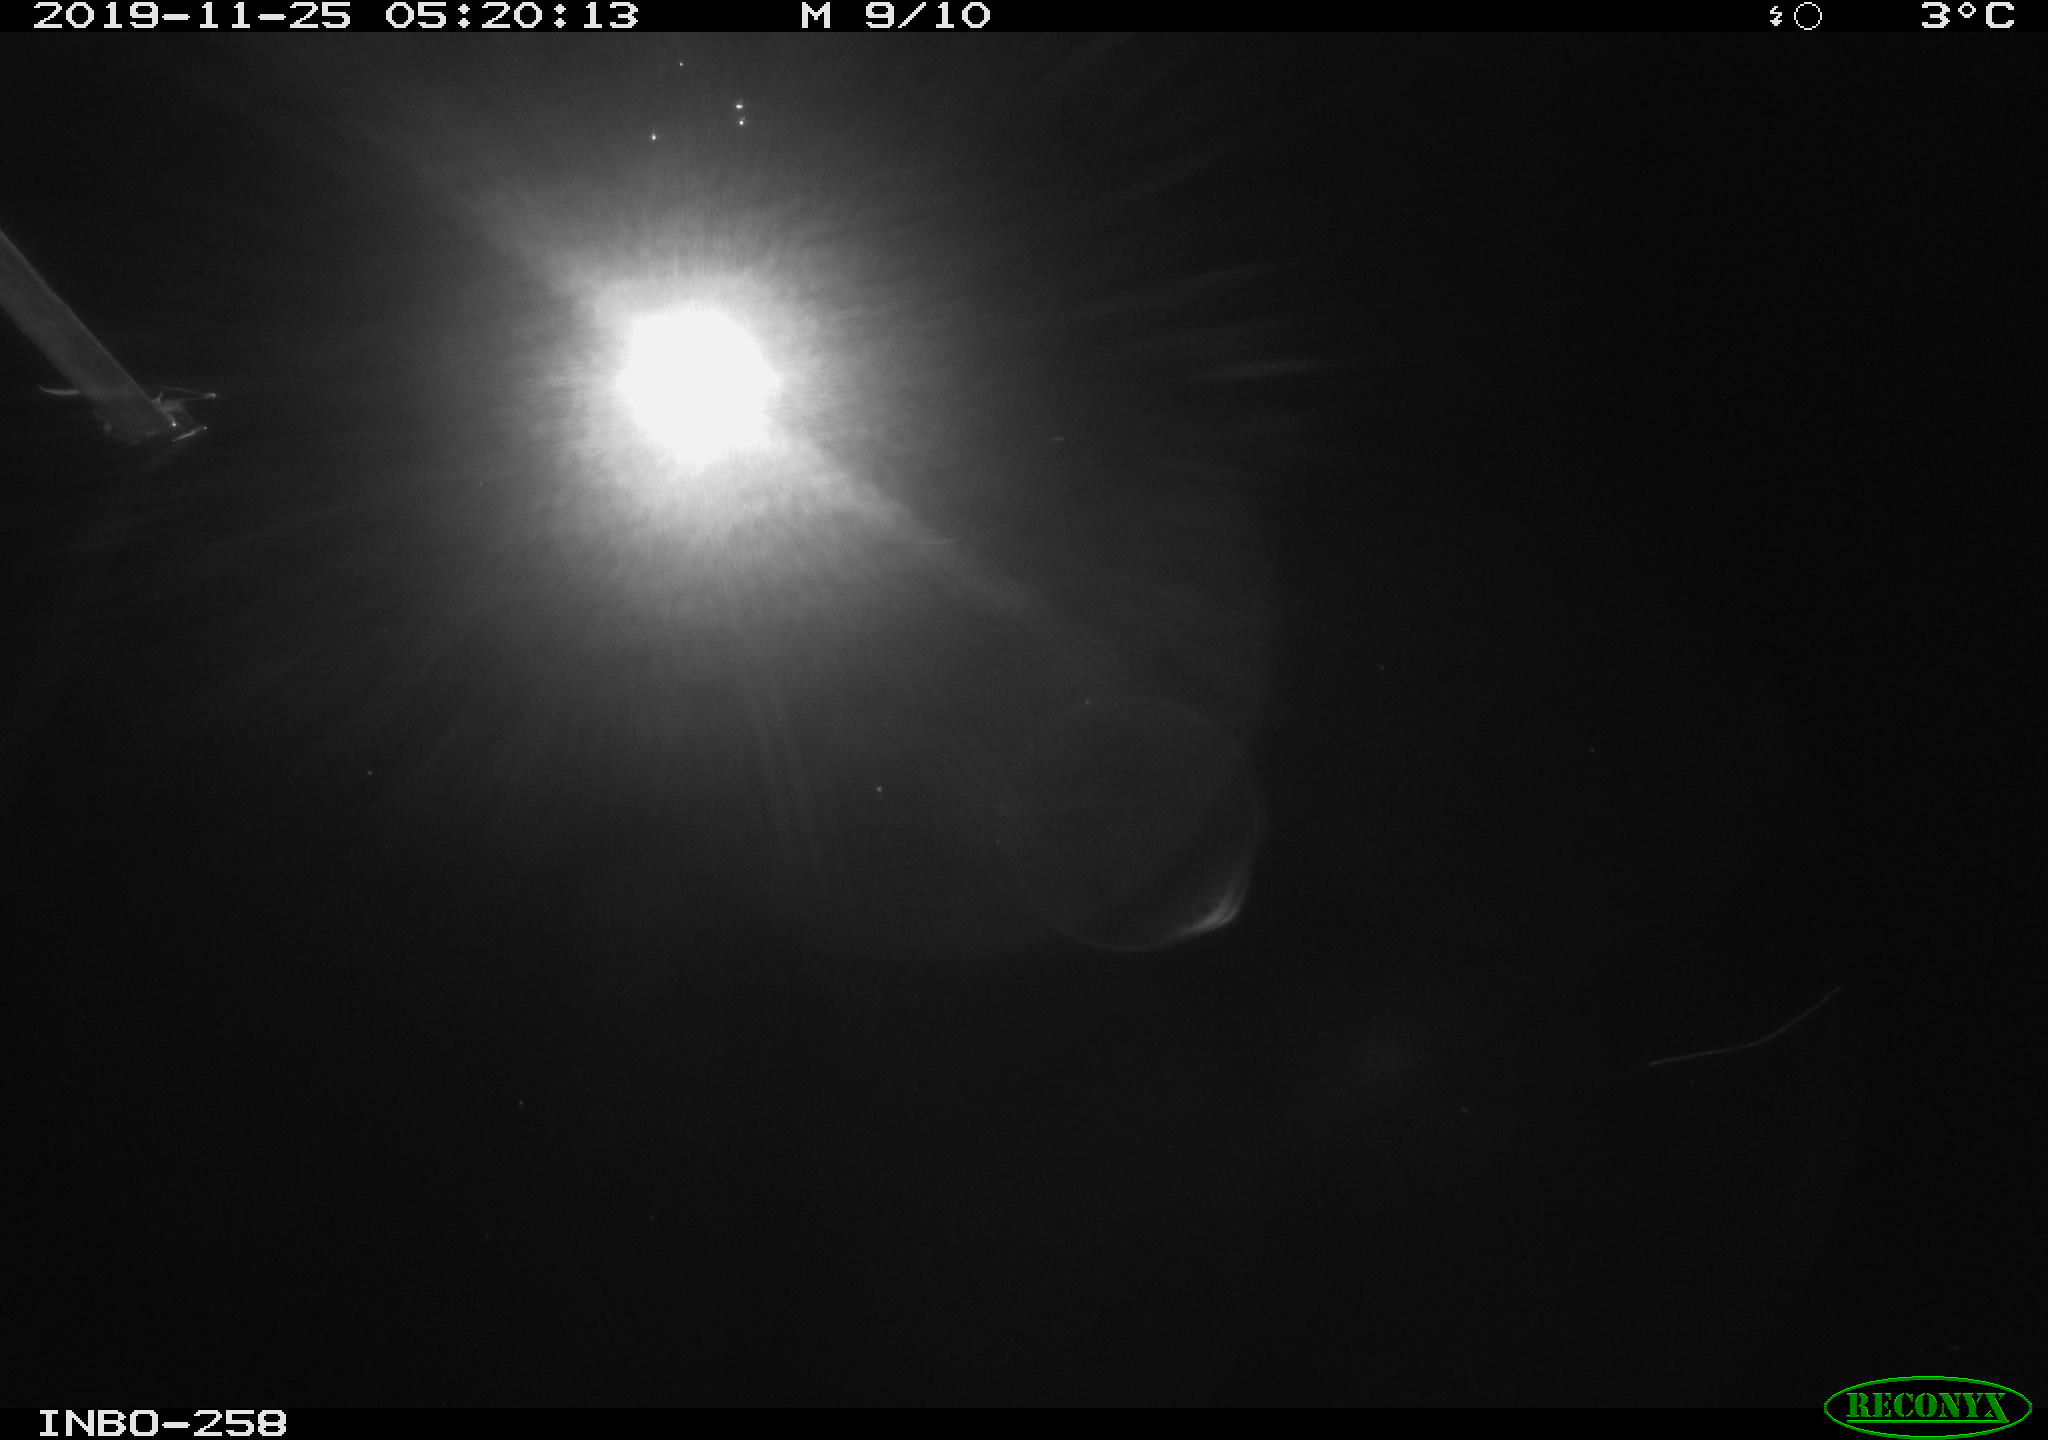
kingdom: Animalia
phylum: Chordata
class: Aves
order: Anseriformes
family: Anatidae
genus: Anas
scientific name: Anas platyrhynchos
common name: Mallard
